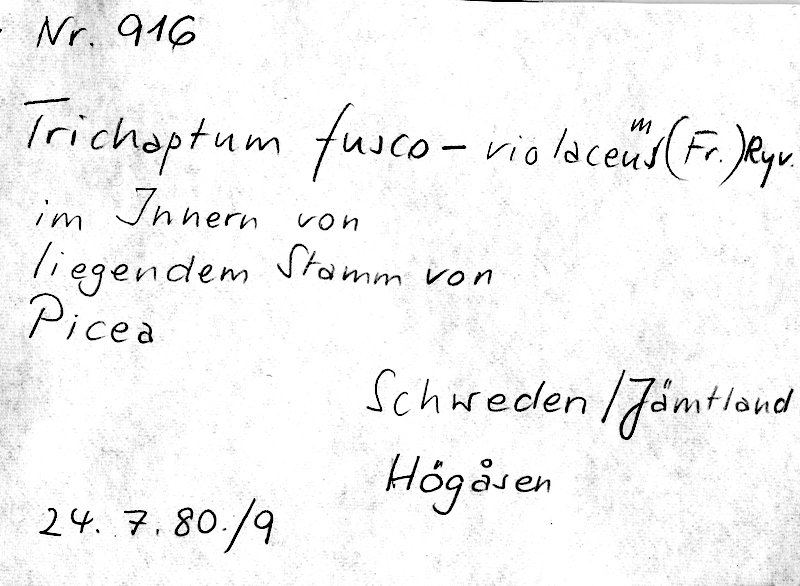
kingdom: Plantae
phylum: Tracheophyta
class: Pinopsida
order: Pinales
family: Pinaceae
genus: Picea
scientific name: Picea
